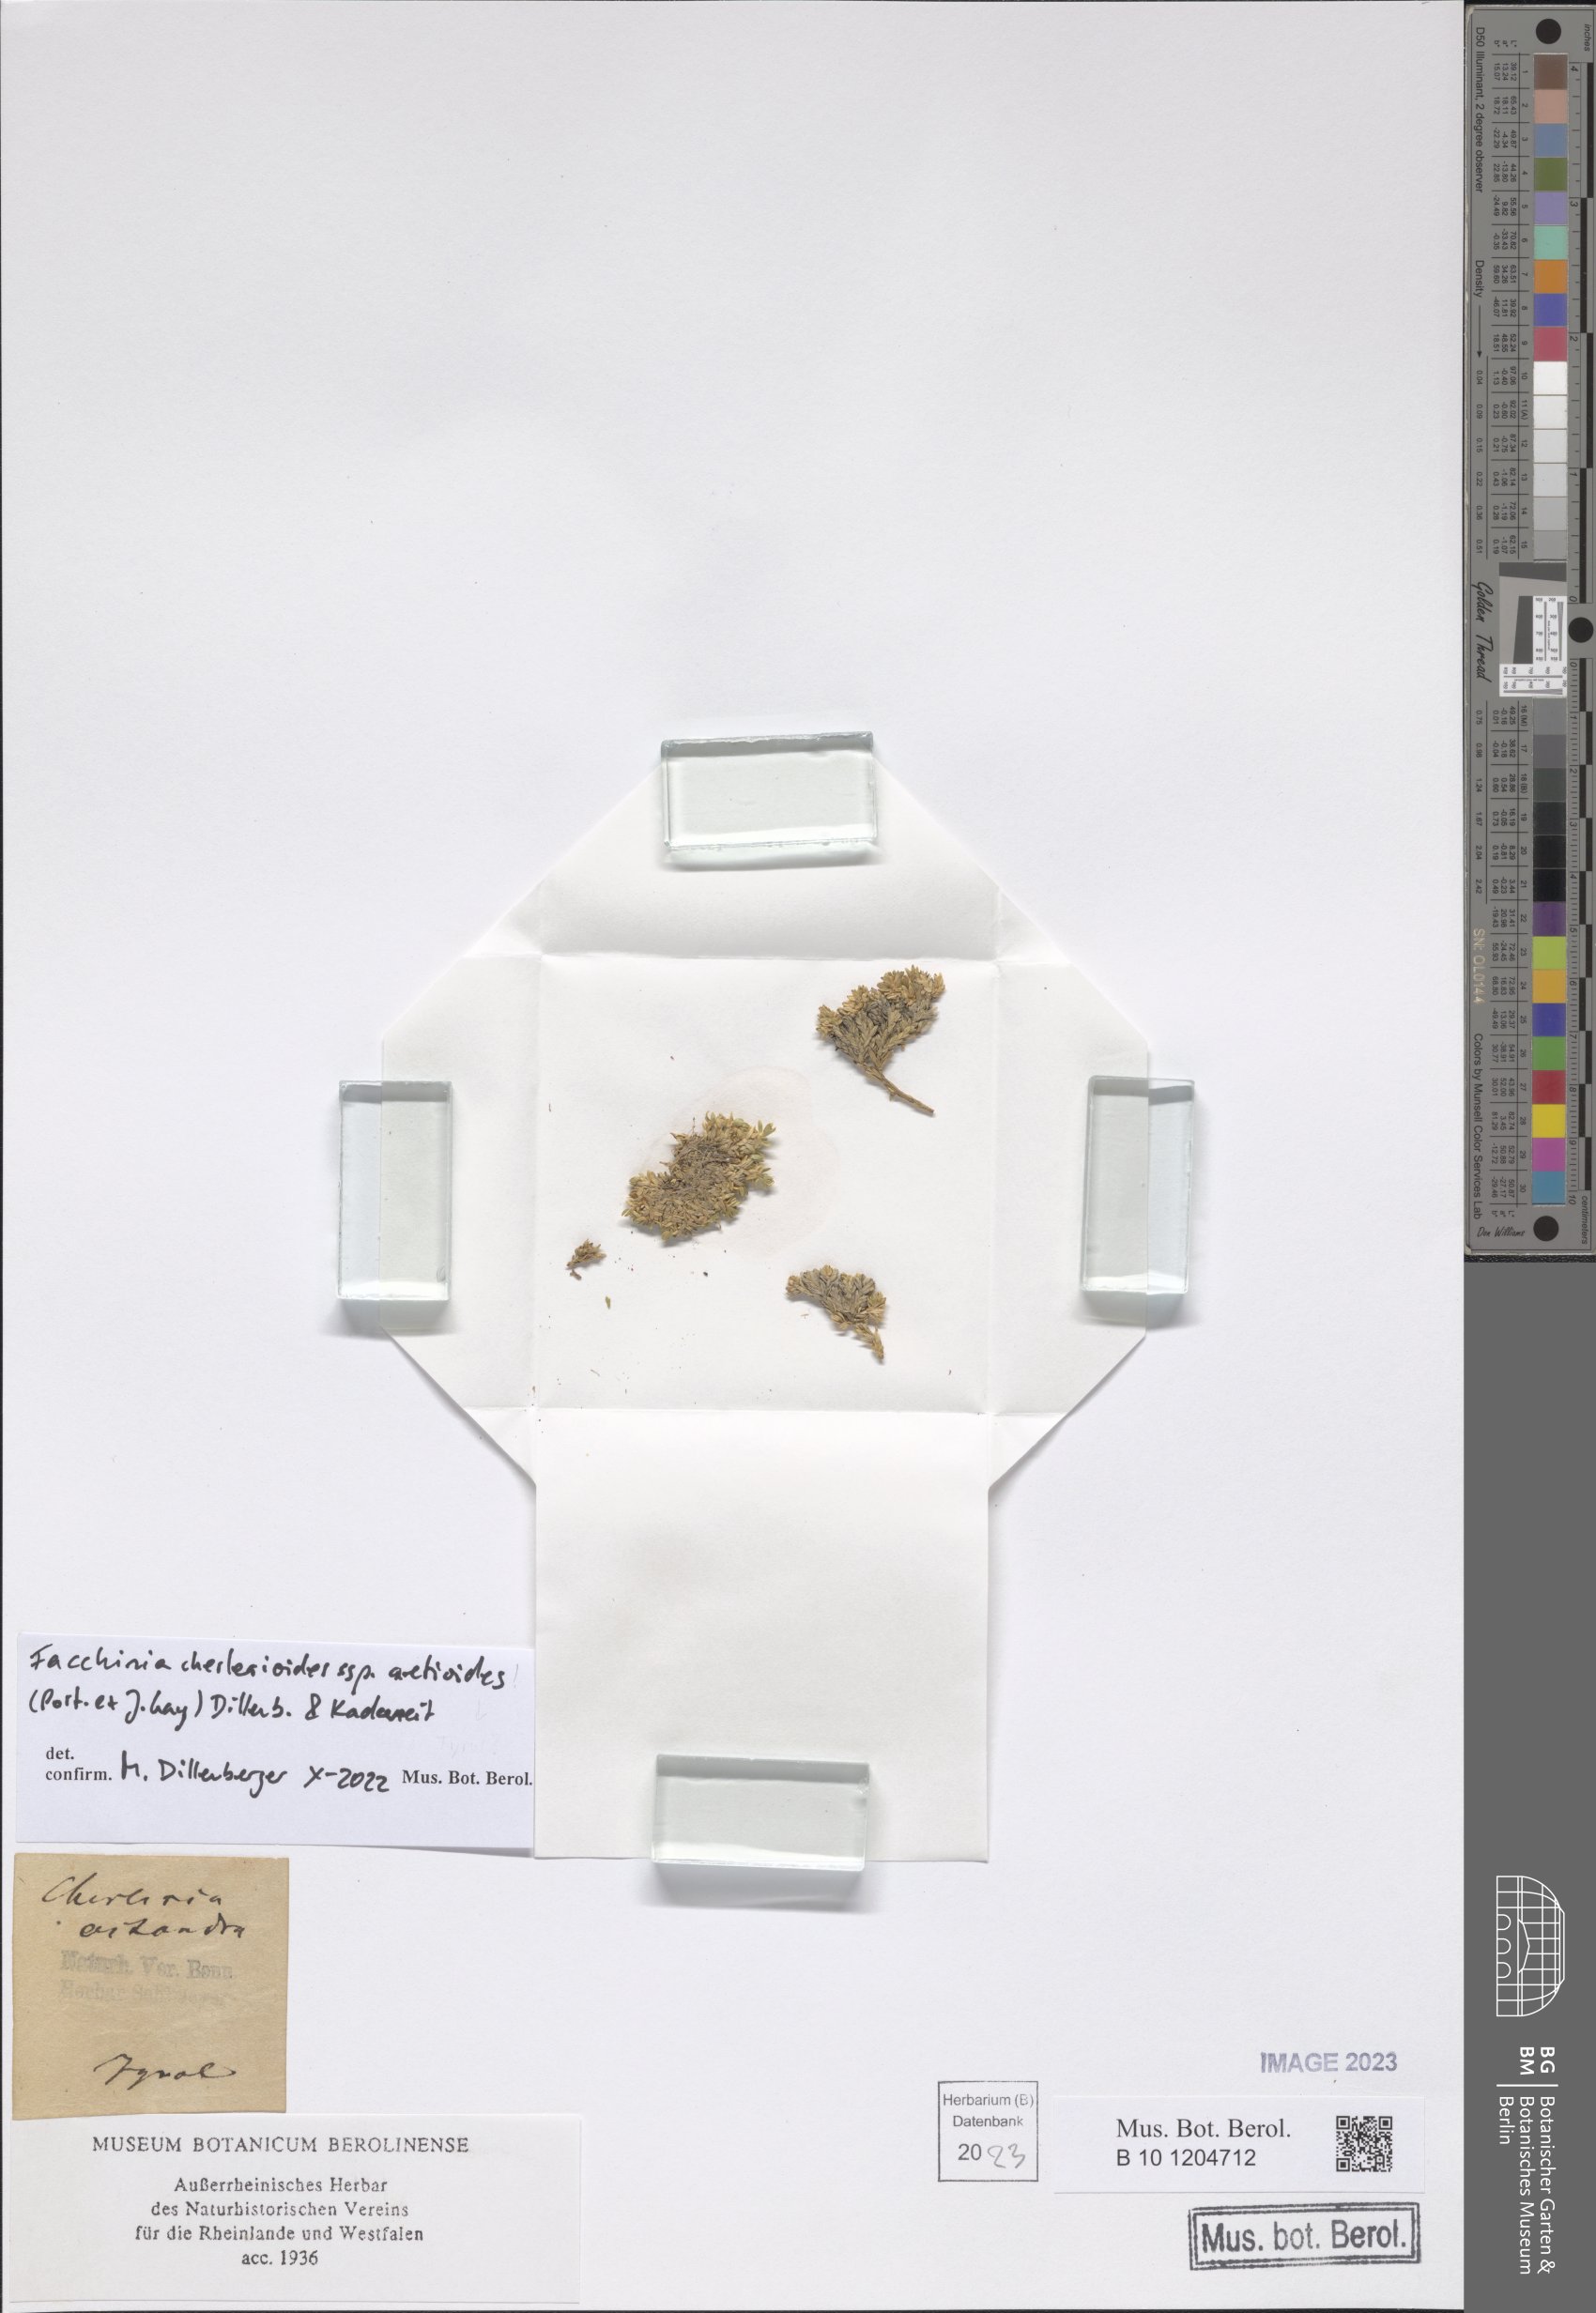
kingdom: Plantae
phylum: Tracheophyta
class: Magnoliopsida
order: Caryophyllales
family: Caryophyllaceae
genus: Facchinia
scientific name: Facchinia cherlerioides
